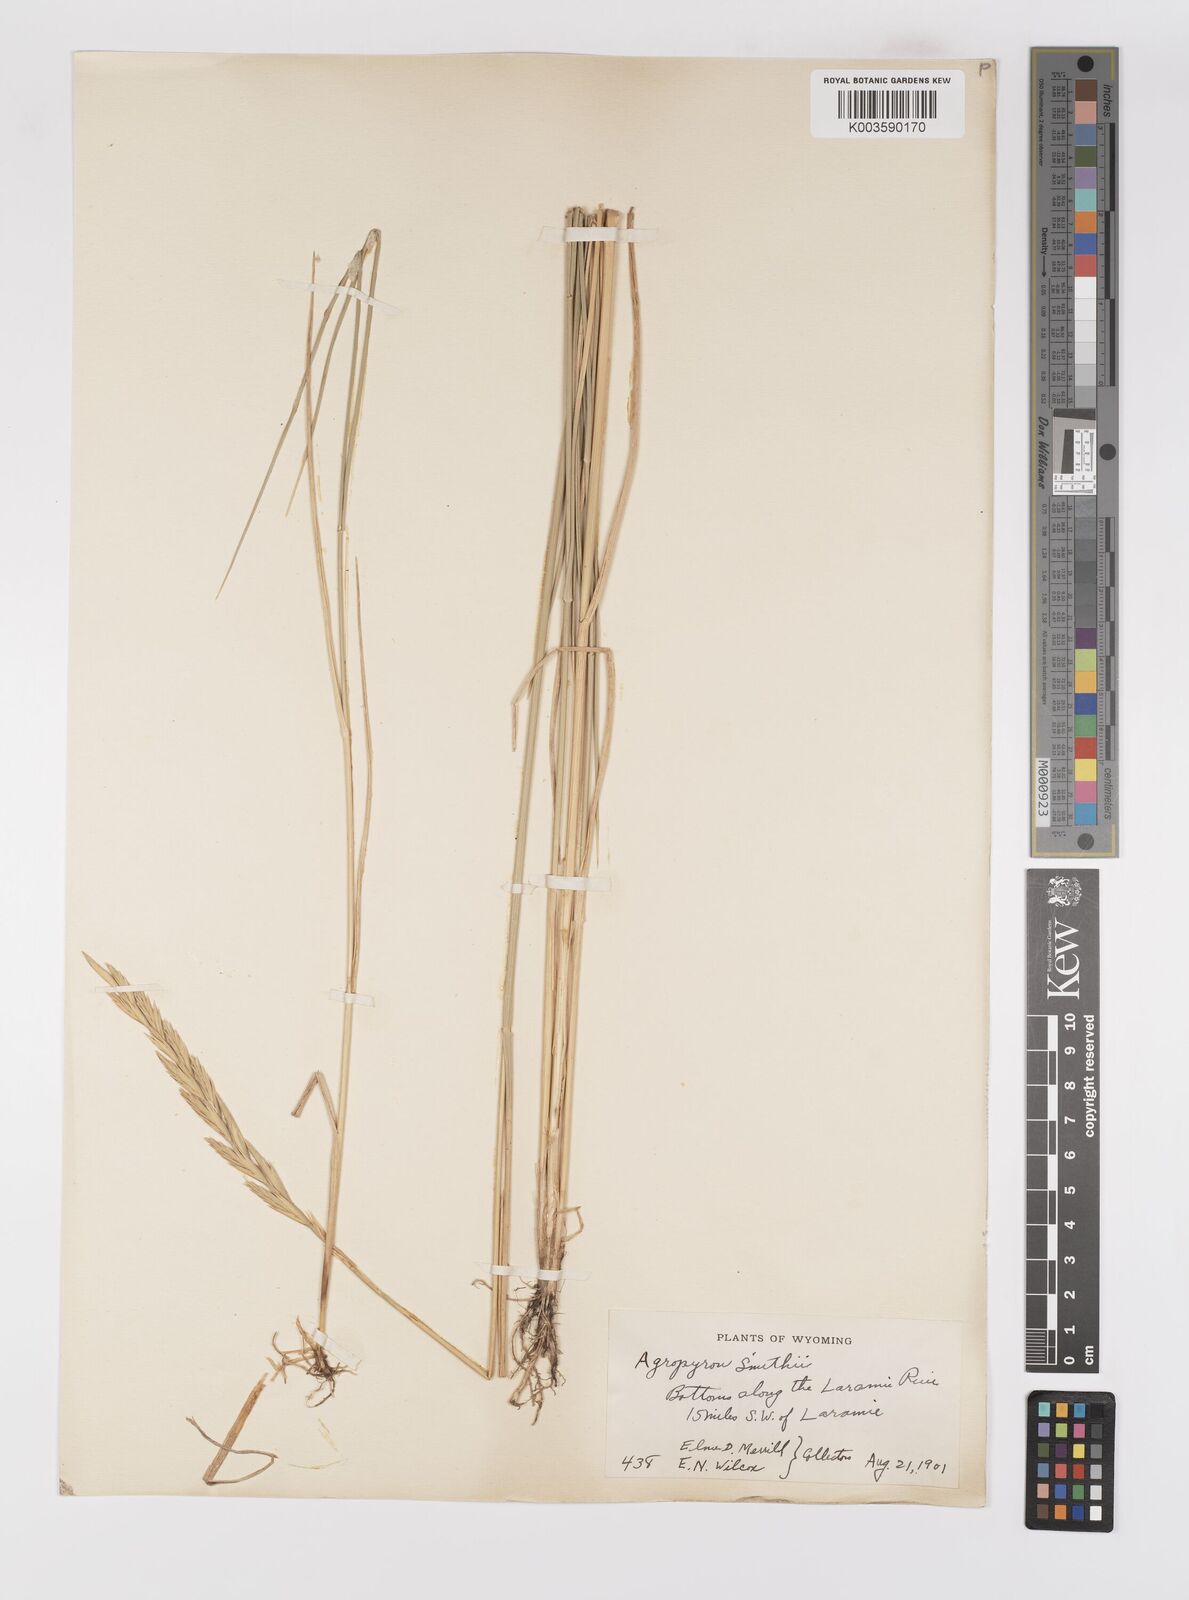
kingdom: Plantae
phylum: Tracheophyta
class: Liliopsida
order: Poales
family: Poaceae
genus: Elymus
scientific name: Elymus smithii
